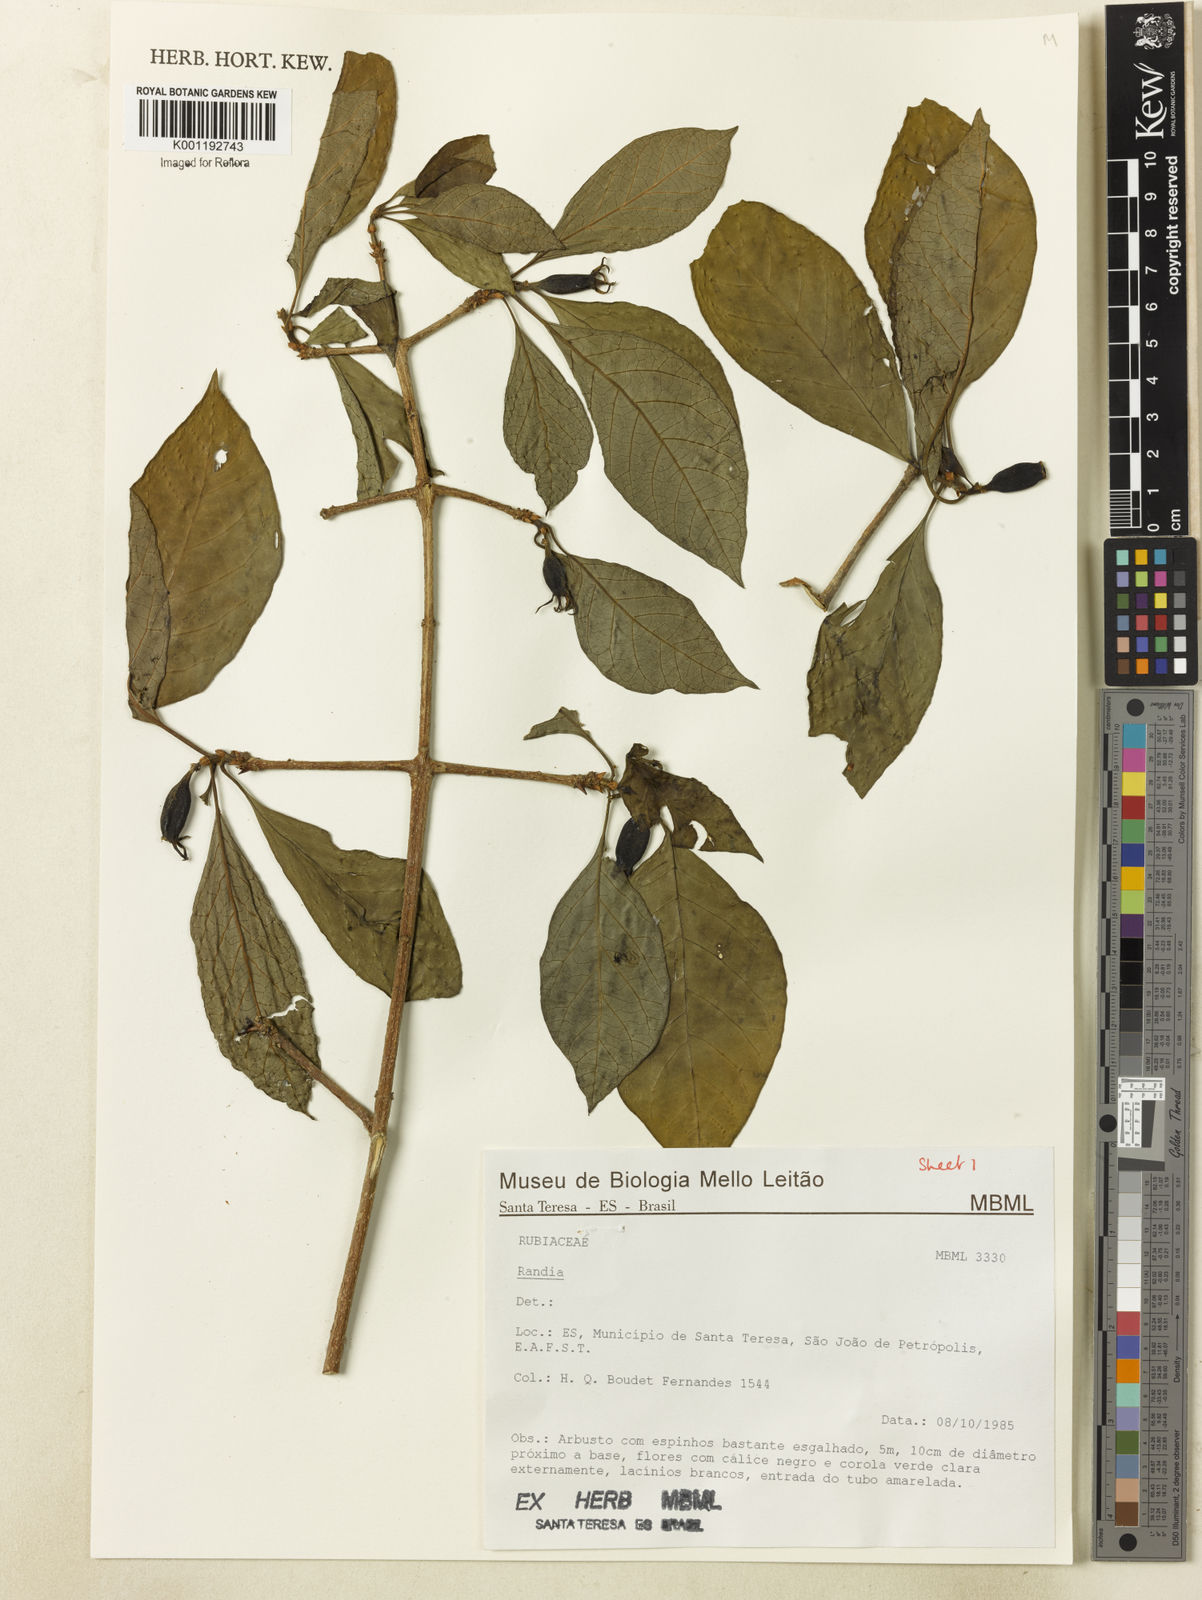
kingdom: Plantae
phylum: Tracheophyta
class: Magnoliopsida
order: Gentianales
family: Rubiaceae
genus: Randia
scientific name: Randia
